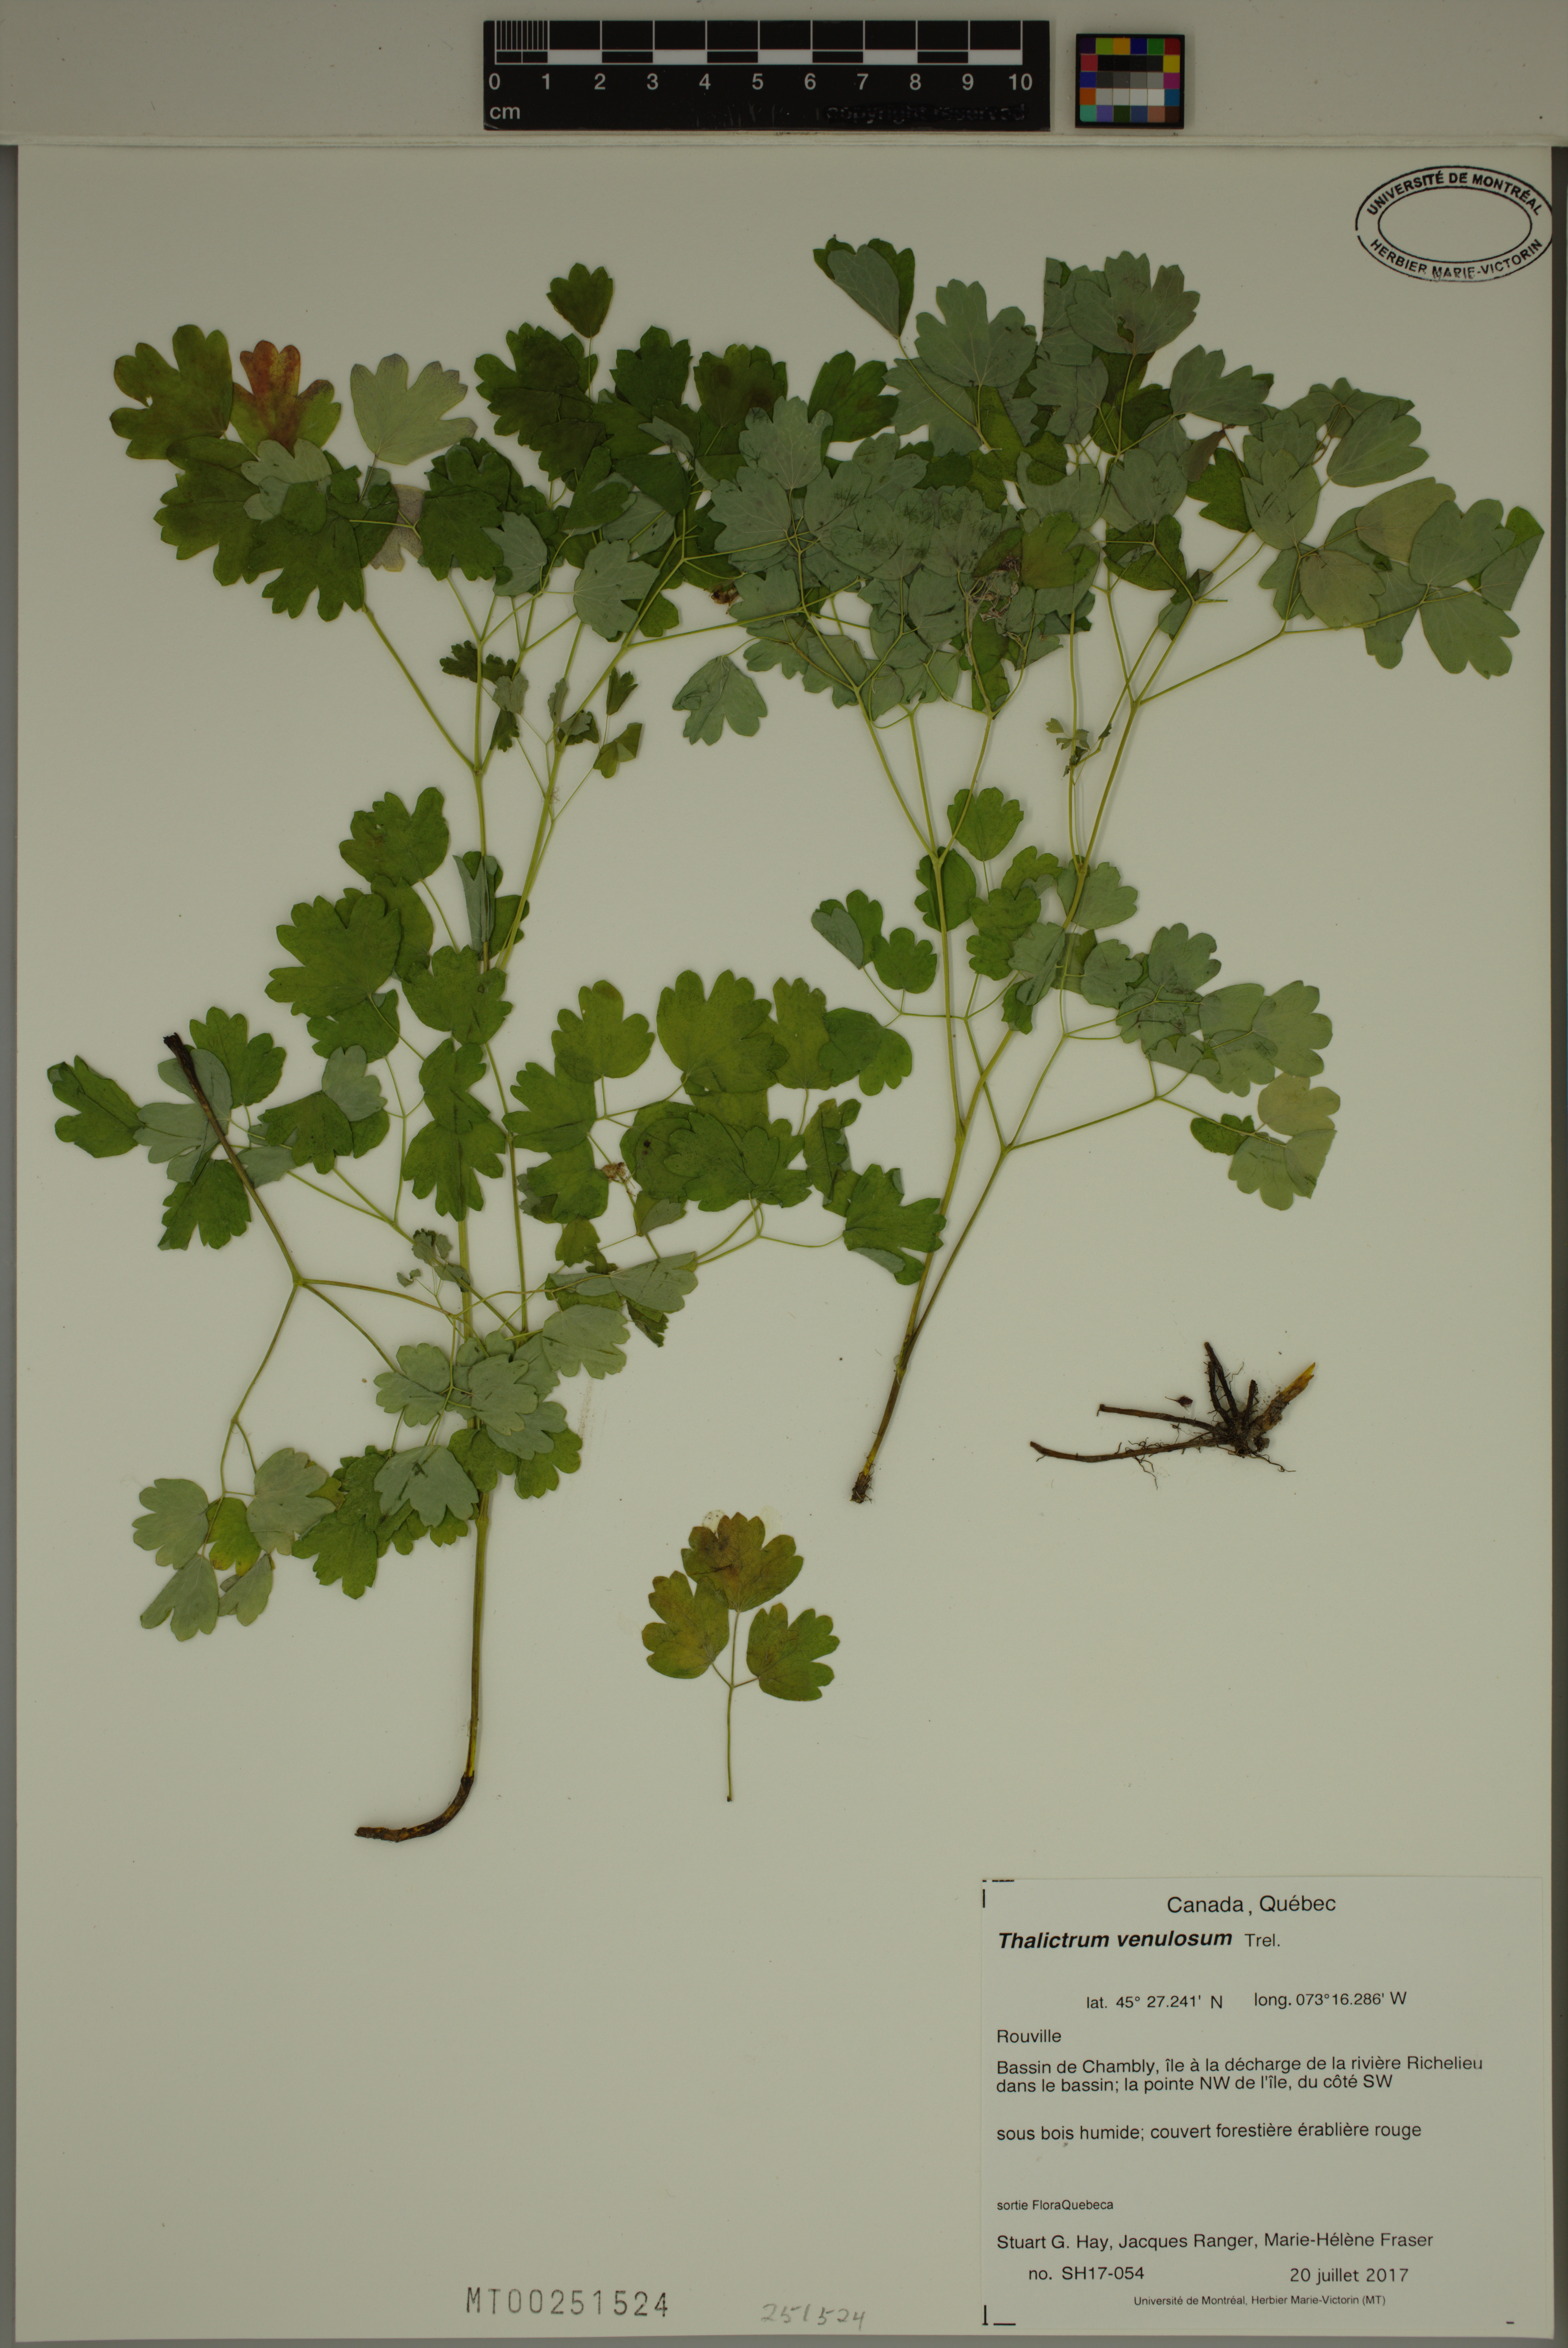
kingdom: Plantae
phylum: Tracheophyta
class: Magnoliopsida
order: Ranunculales
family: Ranunculaceae
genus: Thalictrum
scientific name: Thalictrum venulosum
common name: Early meadow-rue
